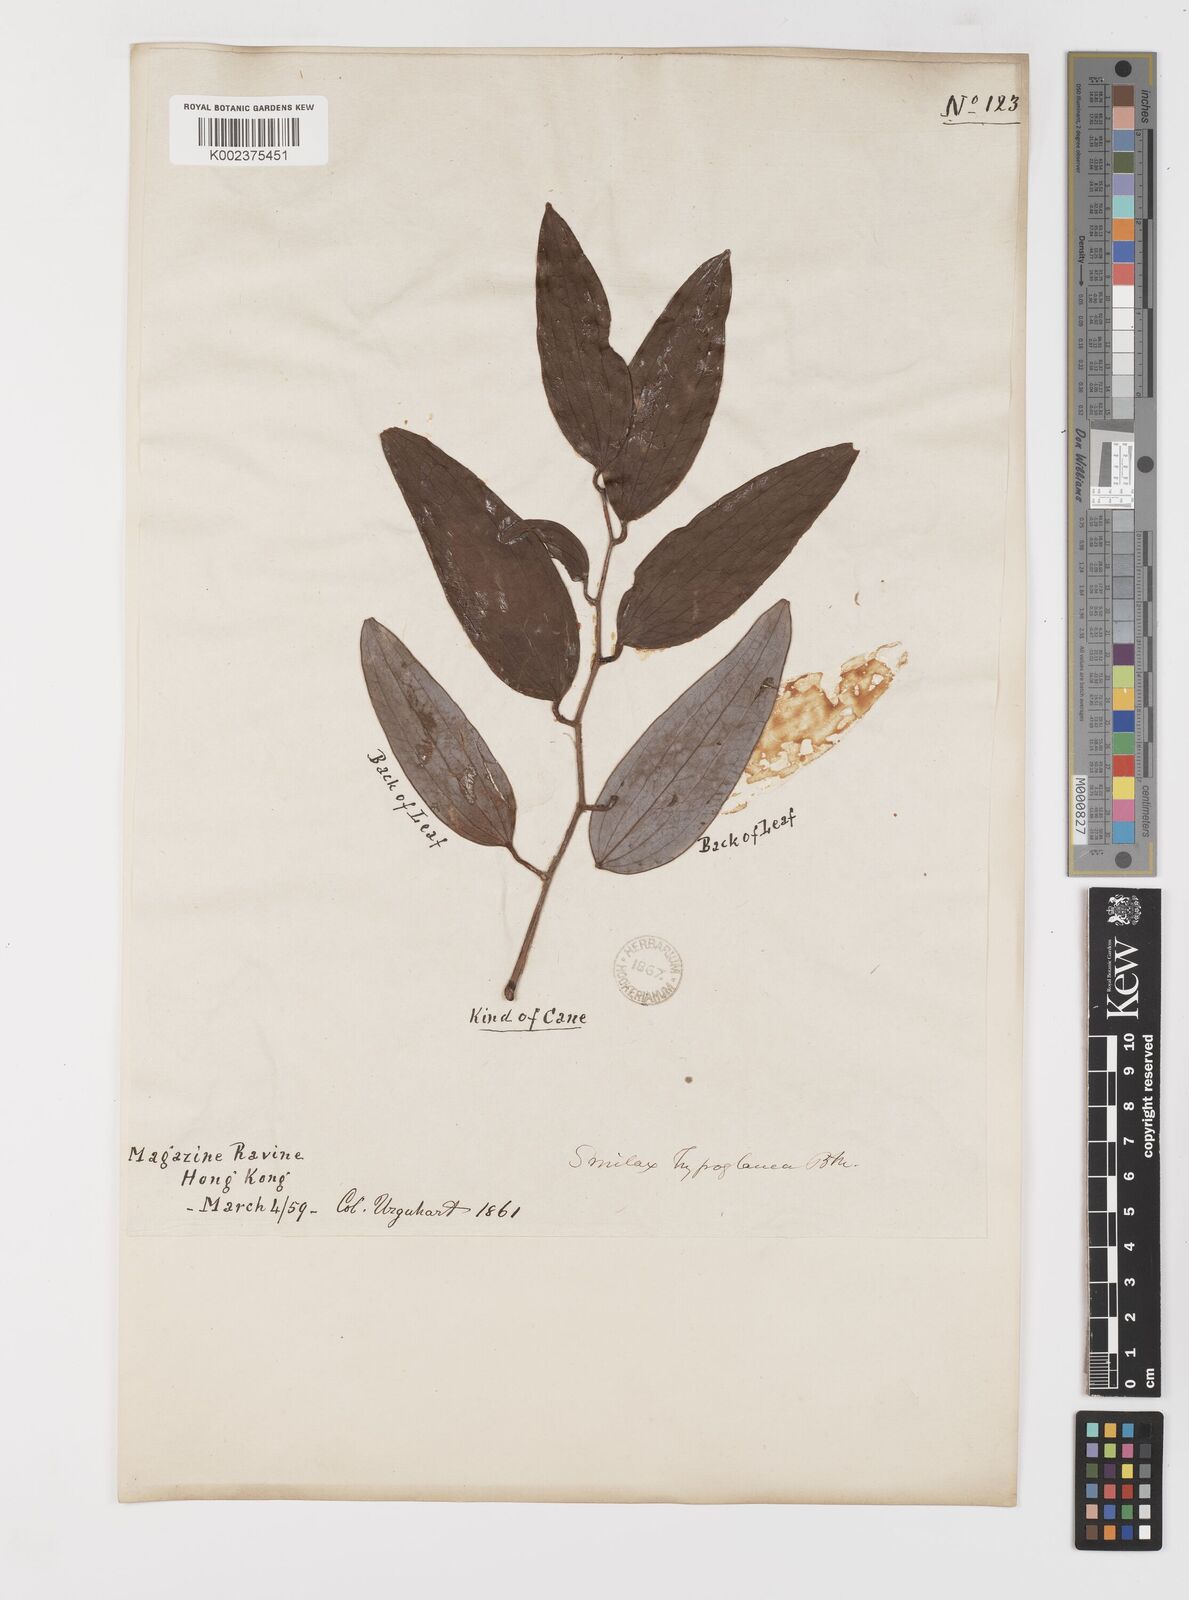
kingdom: Plantae
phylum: Tracheophyta
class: Liliopsida
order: Liliales
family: Smilacaceae
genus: Smilax
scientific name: Smilax hypoglauca
